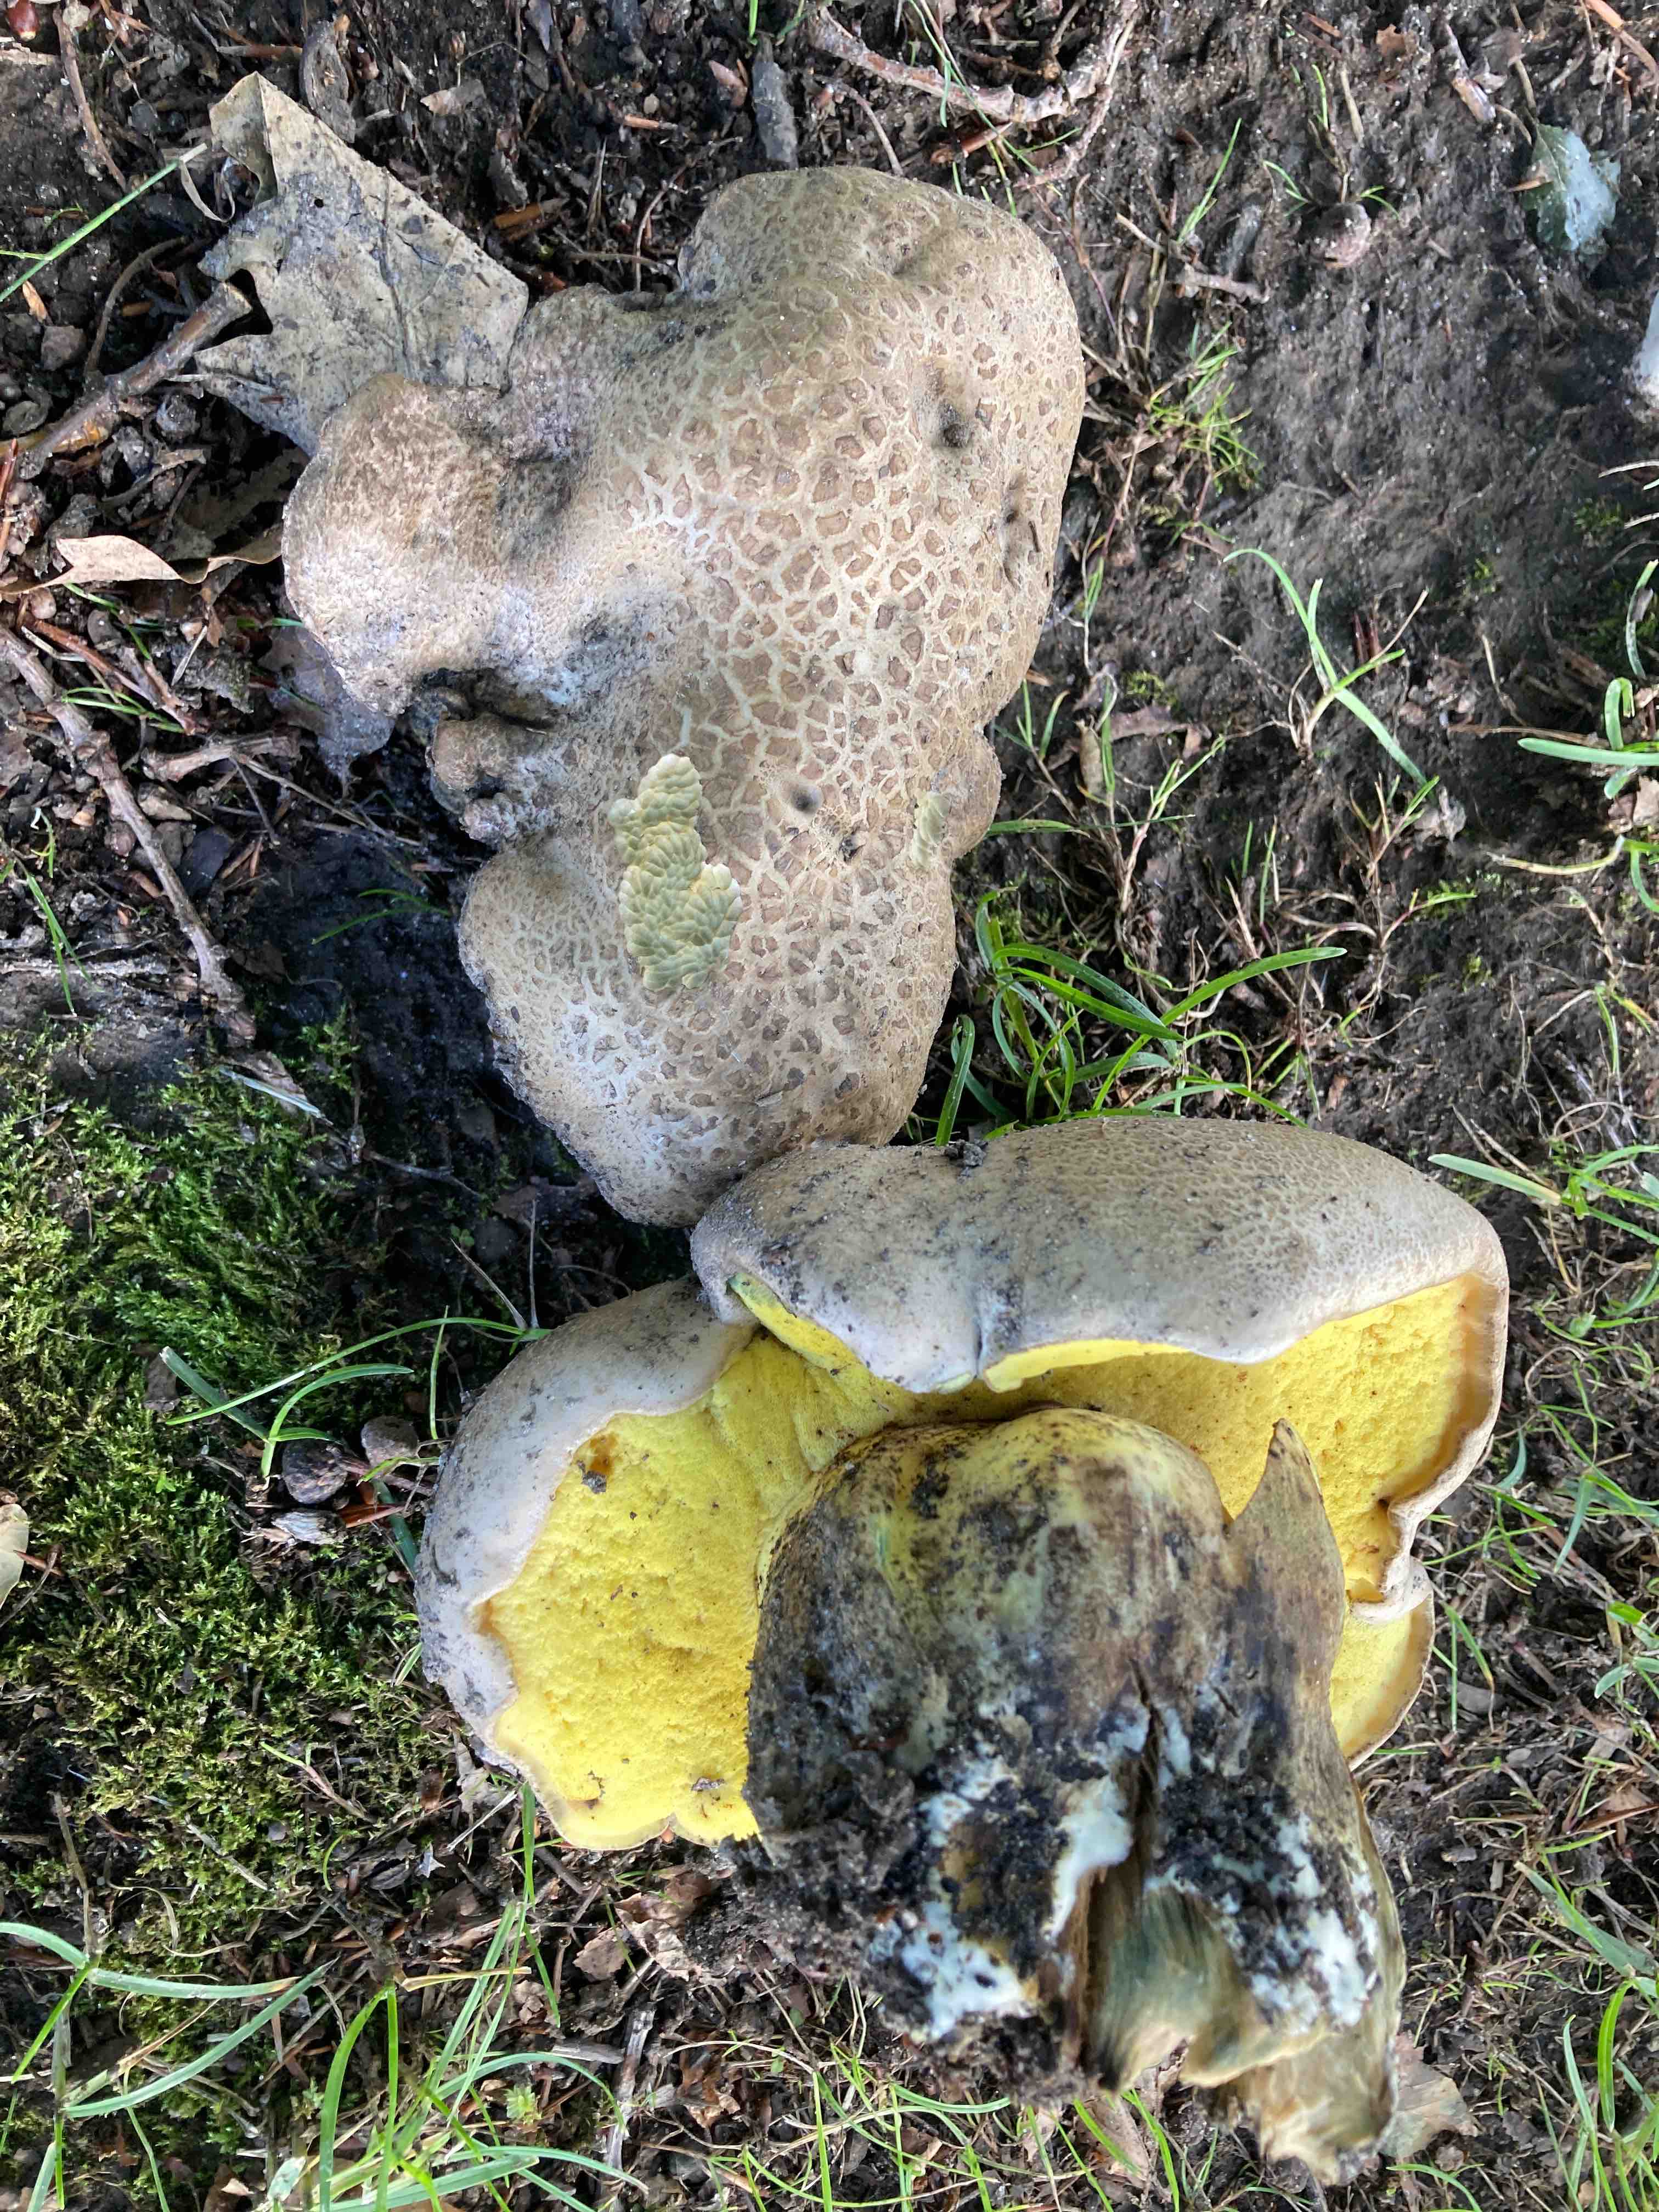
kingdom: Fungi
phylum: Basidiomycota
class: Agaricomycetes
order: Boletales
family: Boletaceae
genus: Caloboletus
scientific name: Caloboletus radicans
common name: rod-rørhat
